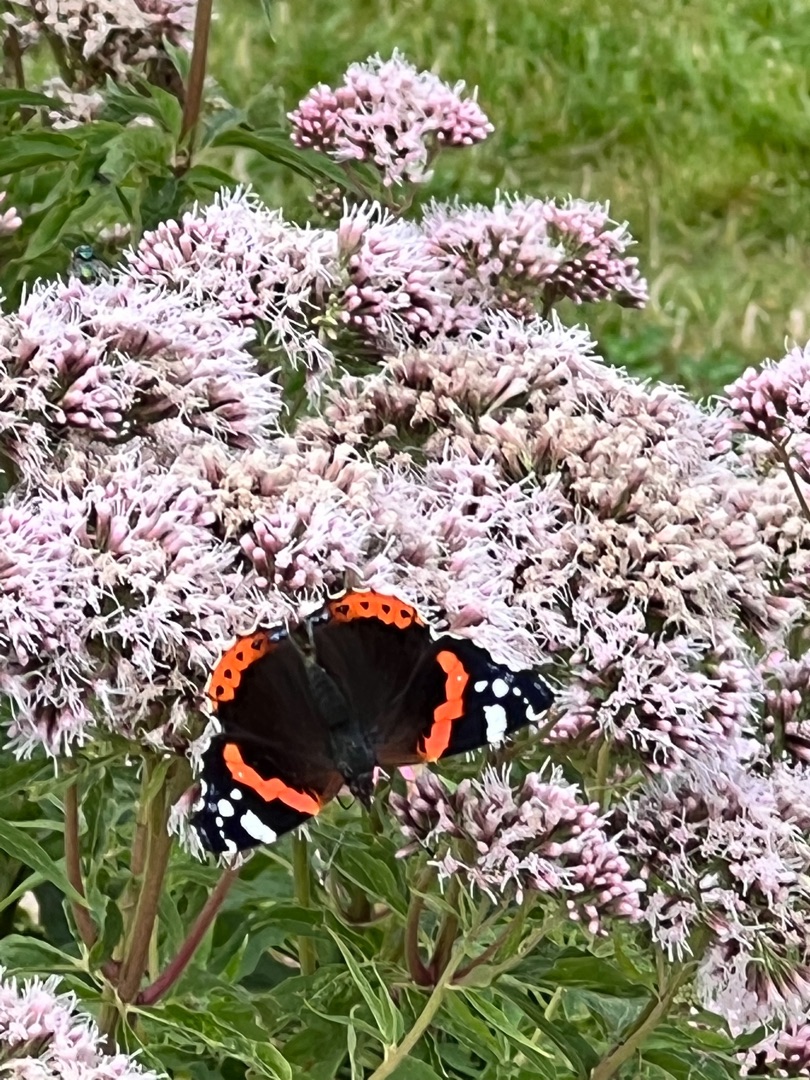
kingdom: Animalia
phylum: Arthropoda
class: Insecta
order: Lepidoptera
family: Nymphalidae
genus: Vanessa
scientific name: Vanessa atalanta
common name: Admiral
